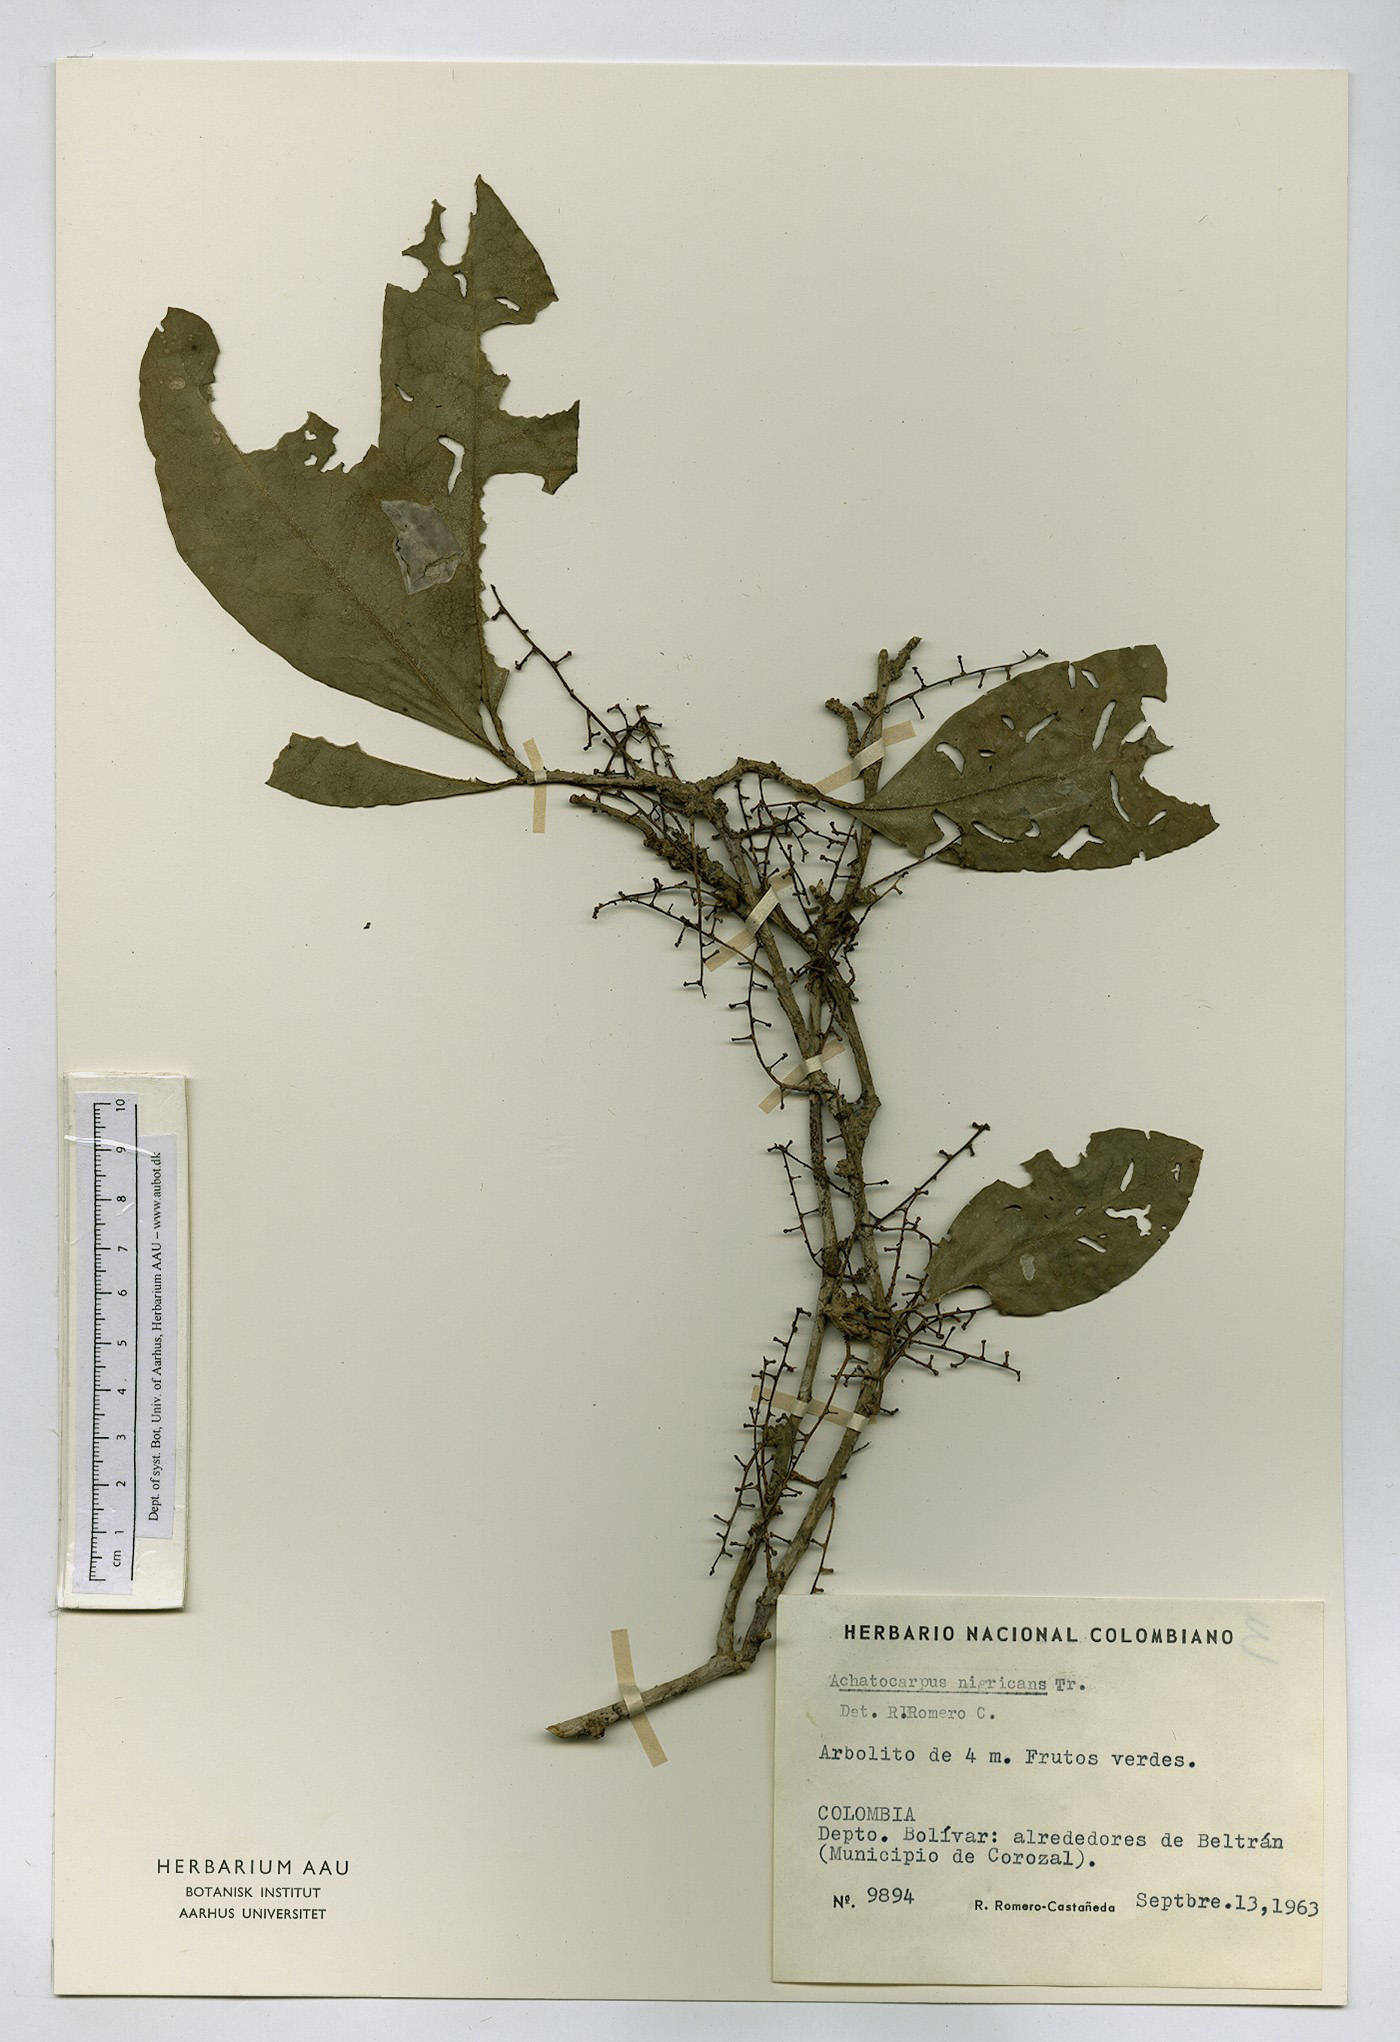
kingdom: Plantae
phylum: Tracheophyta
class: Magnoliopsida
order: Caryophyllales
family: Achatocarpaceae
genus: Achatocarpus
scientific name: Achatocarpus nigricans
